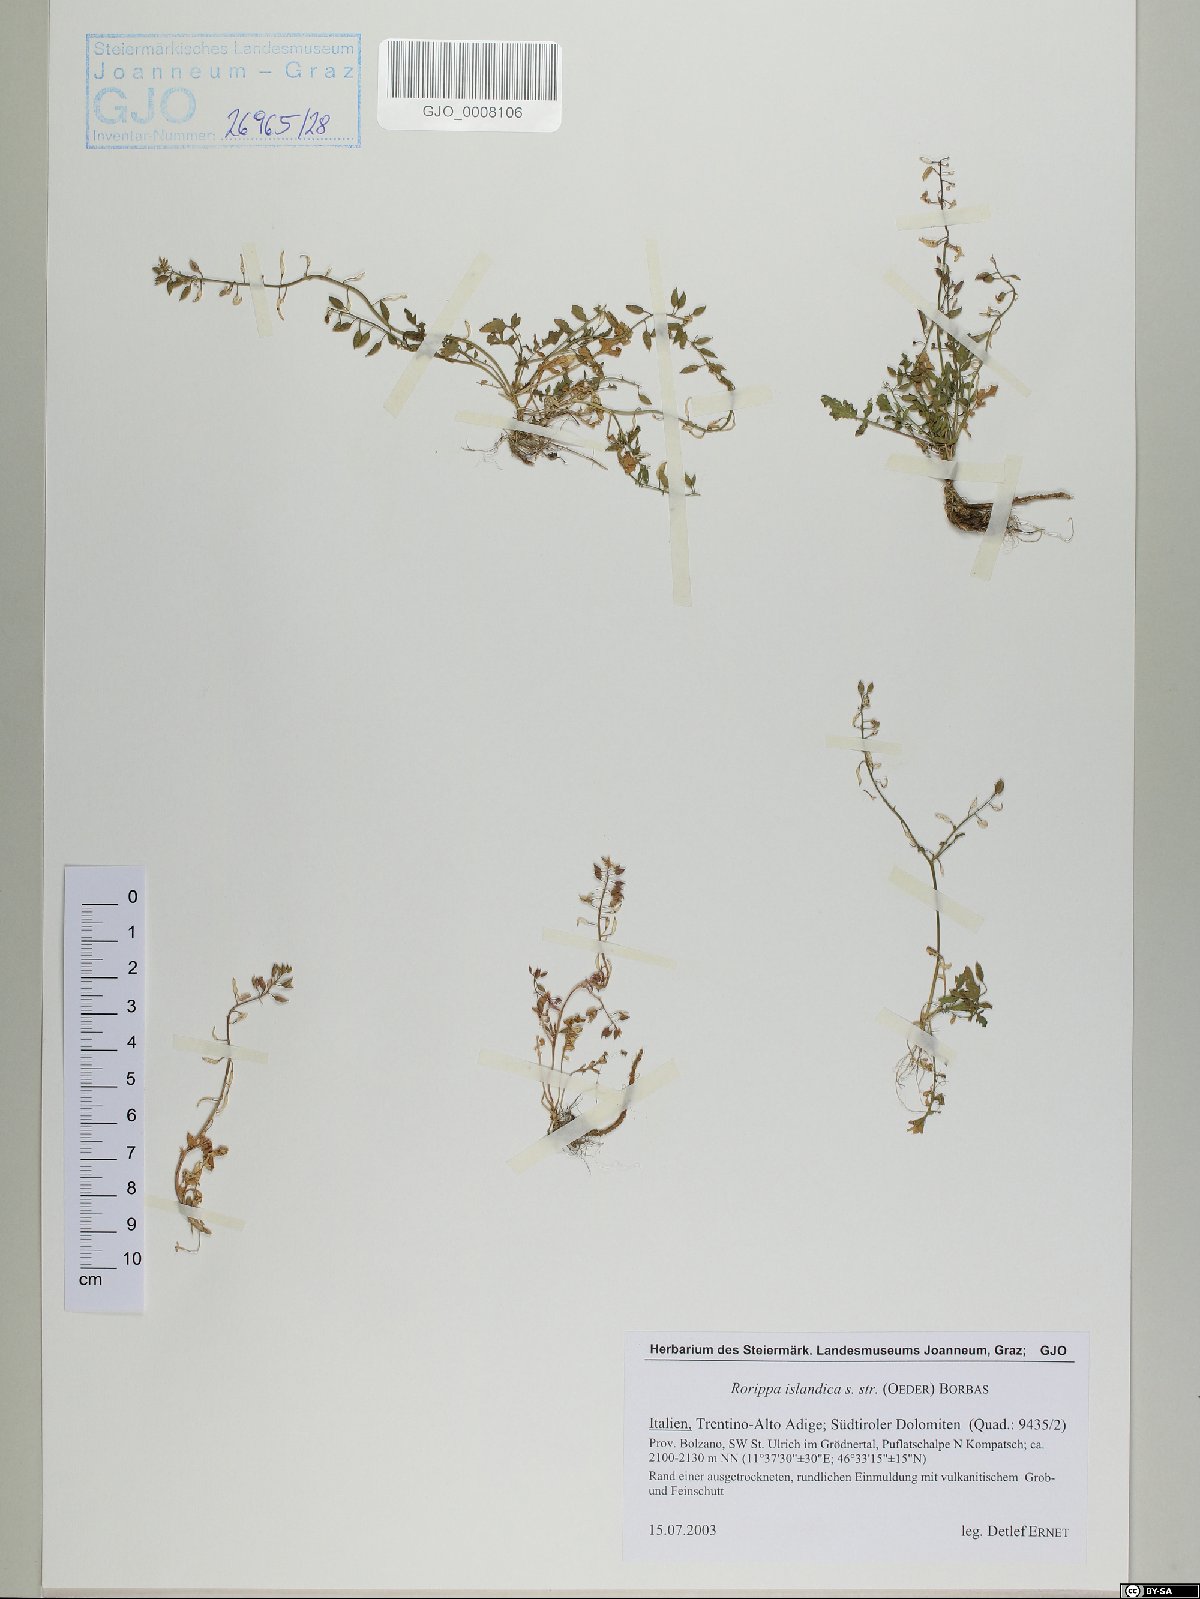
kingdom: Plantae
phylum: Tracheophyta
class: Magnoliopsida
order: Brassicales
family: Brassicaceae
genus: Rorippa
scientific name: Rorippa islandica
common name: Marsh cress
